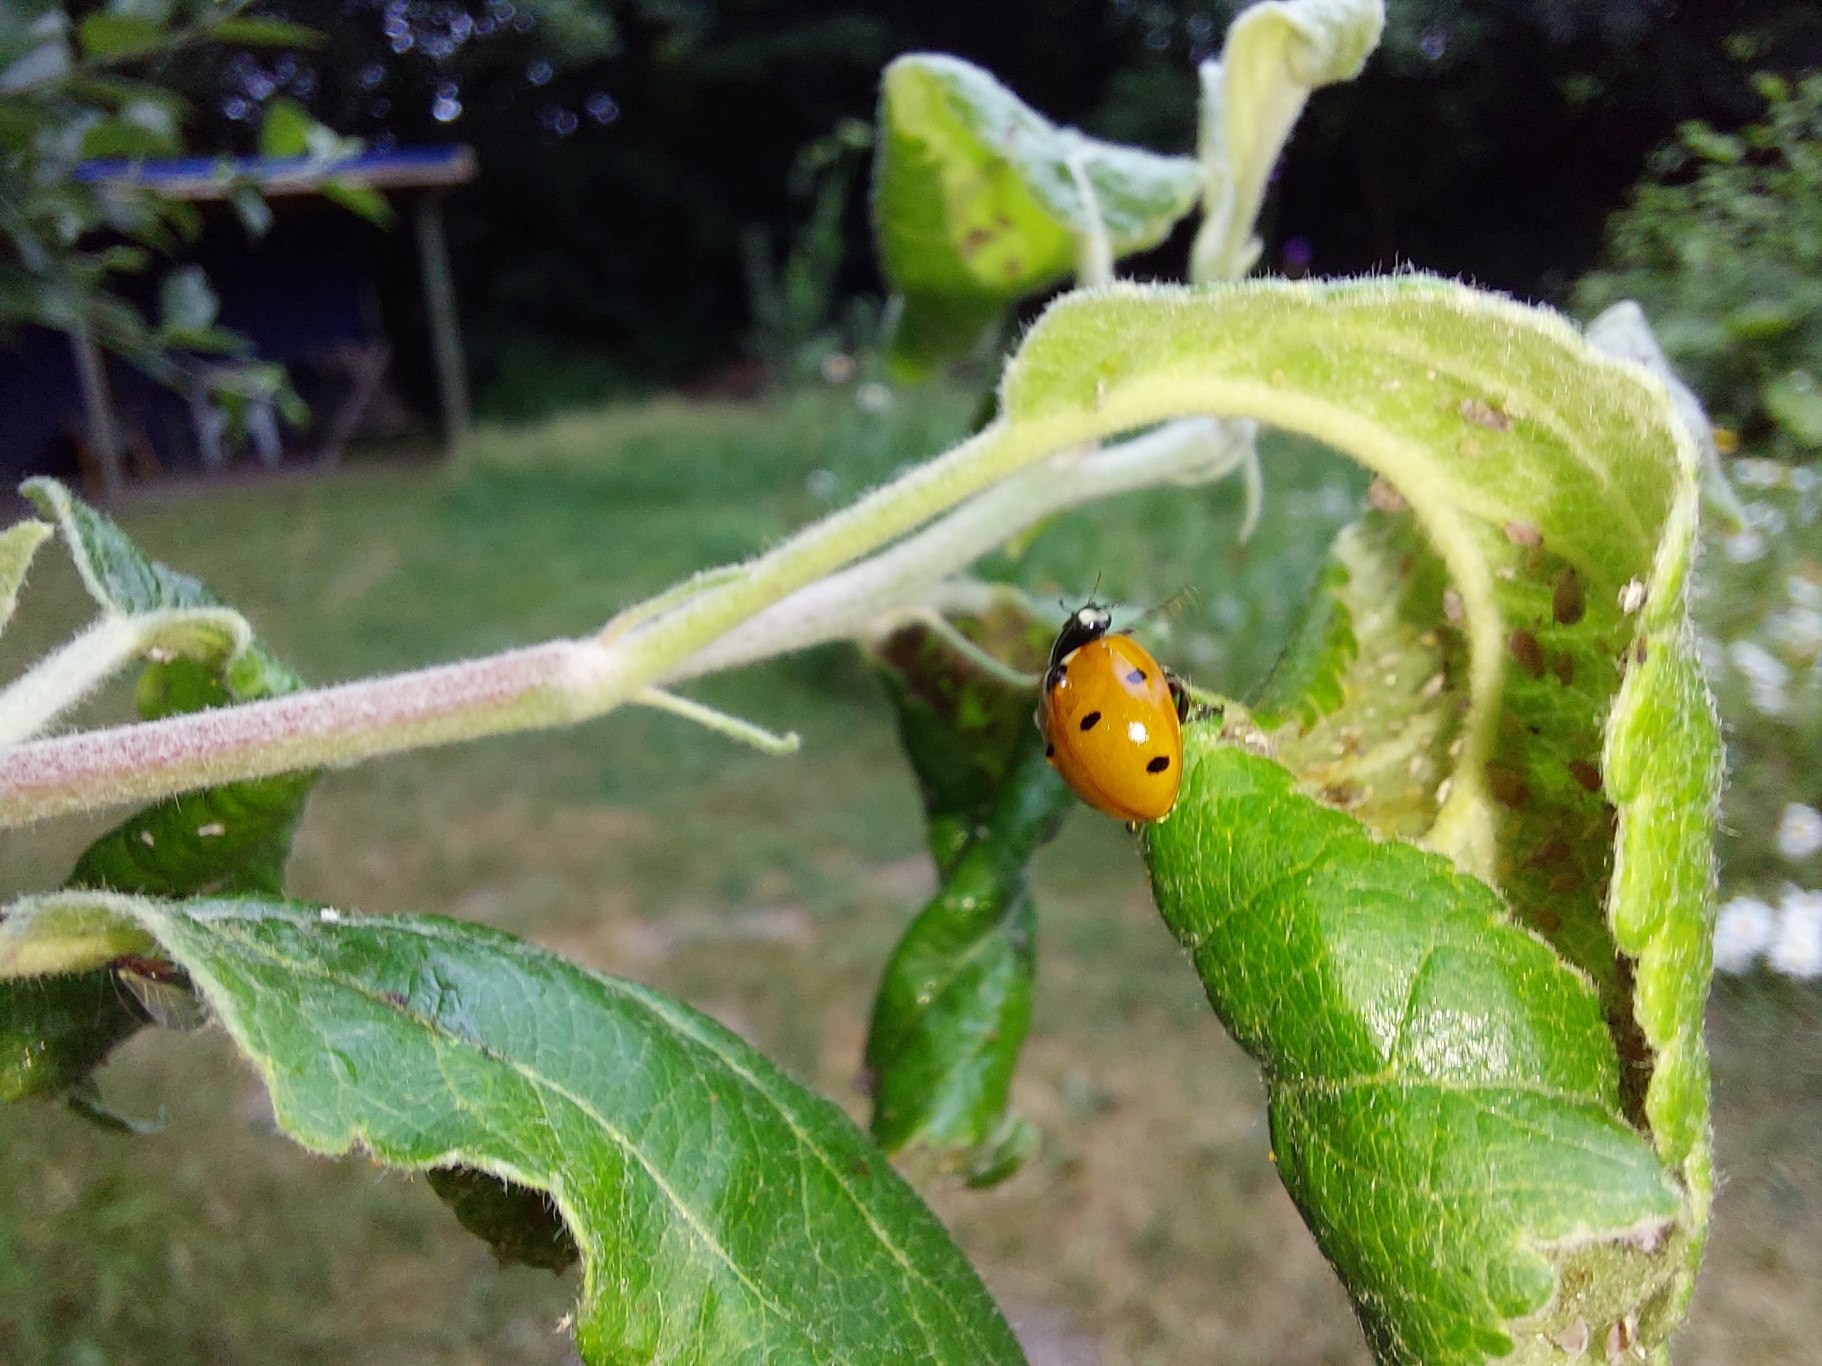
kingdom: Animalia
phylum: Arthropoda
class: Insecta
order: Coleoptera
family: Coccinellidae
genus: Coccinella
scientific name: Coccinella septempunctata
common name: Syvplettet mariehøne
